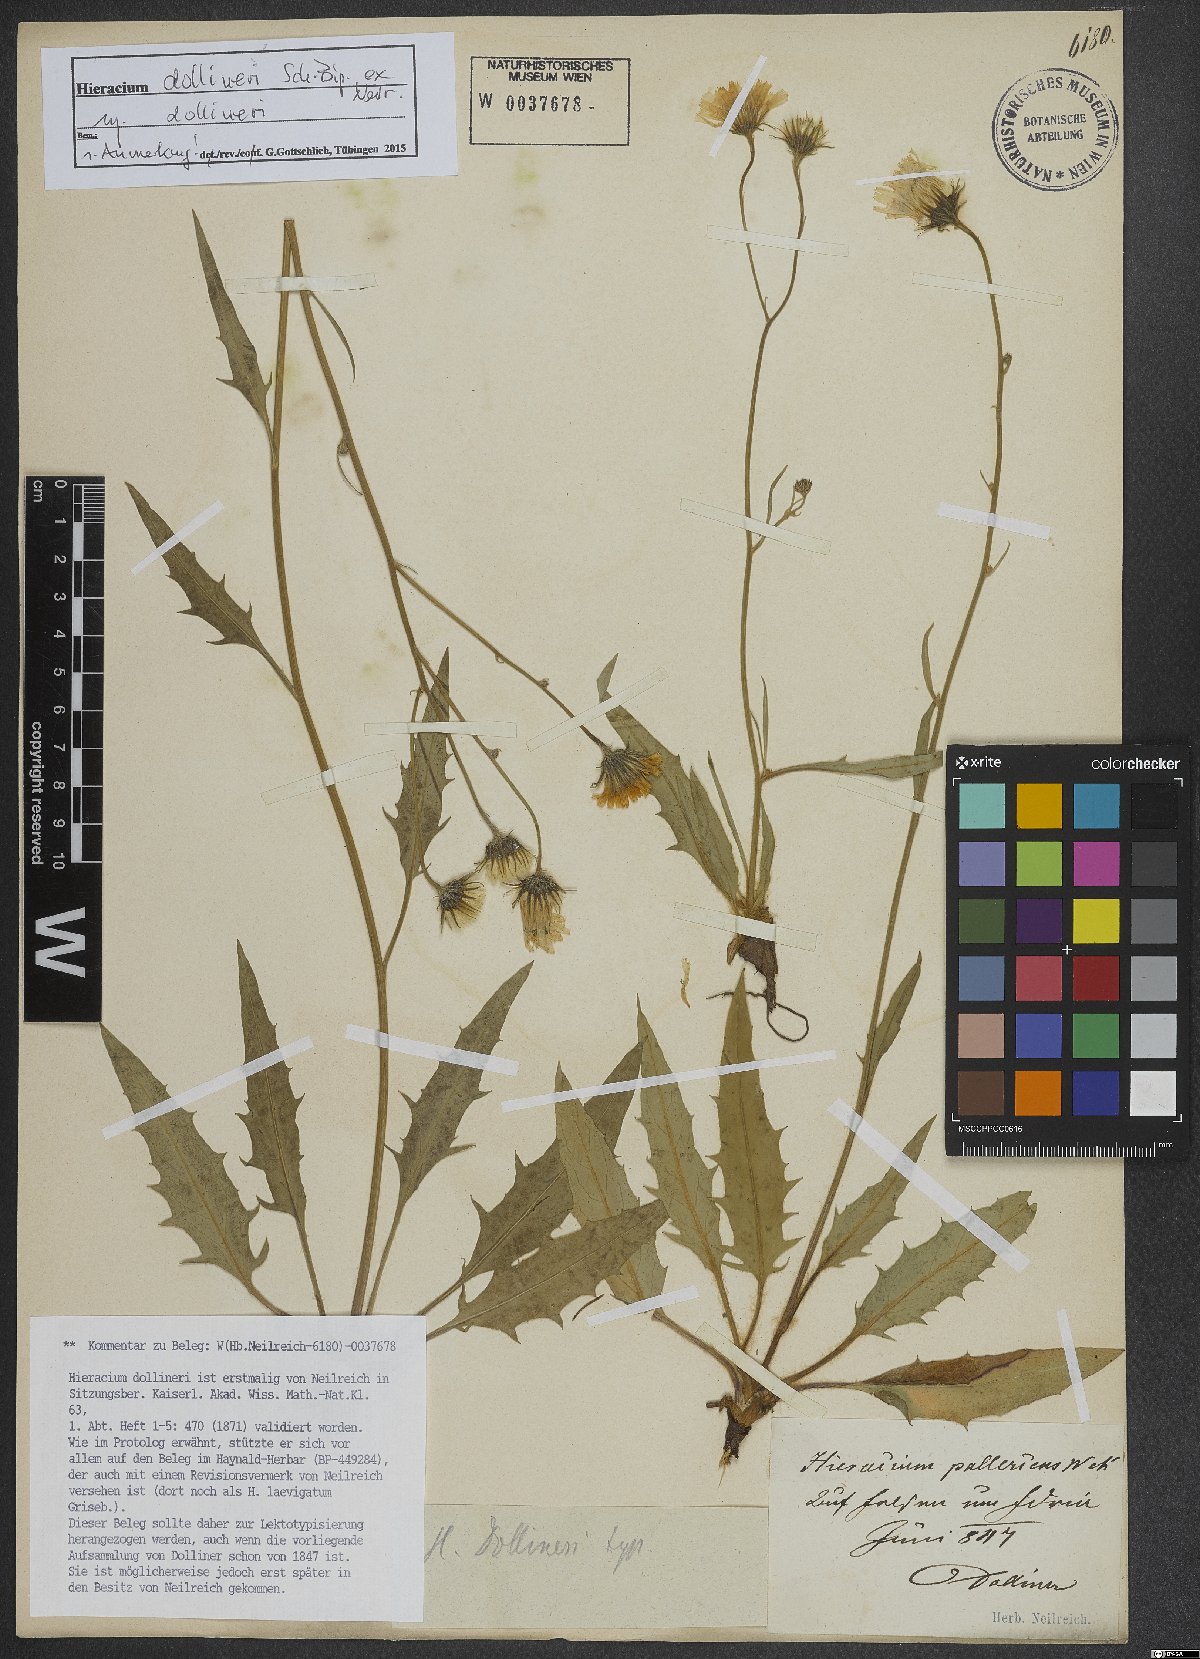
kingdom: Plantae
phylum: Tracheophyta
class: Magnoliopsida
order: Asterales
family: Asteraceae
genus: Hieracium
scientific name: Hieracium dollineri
